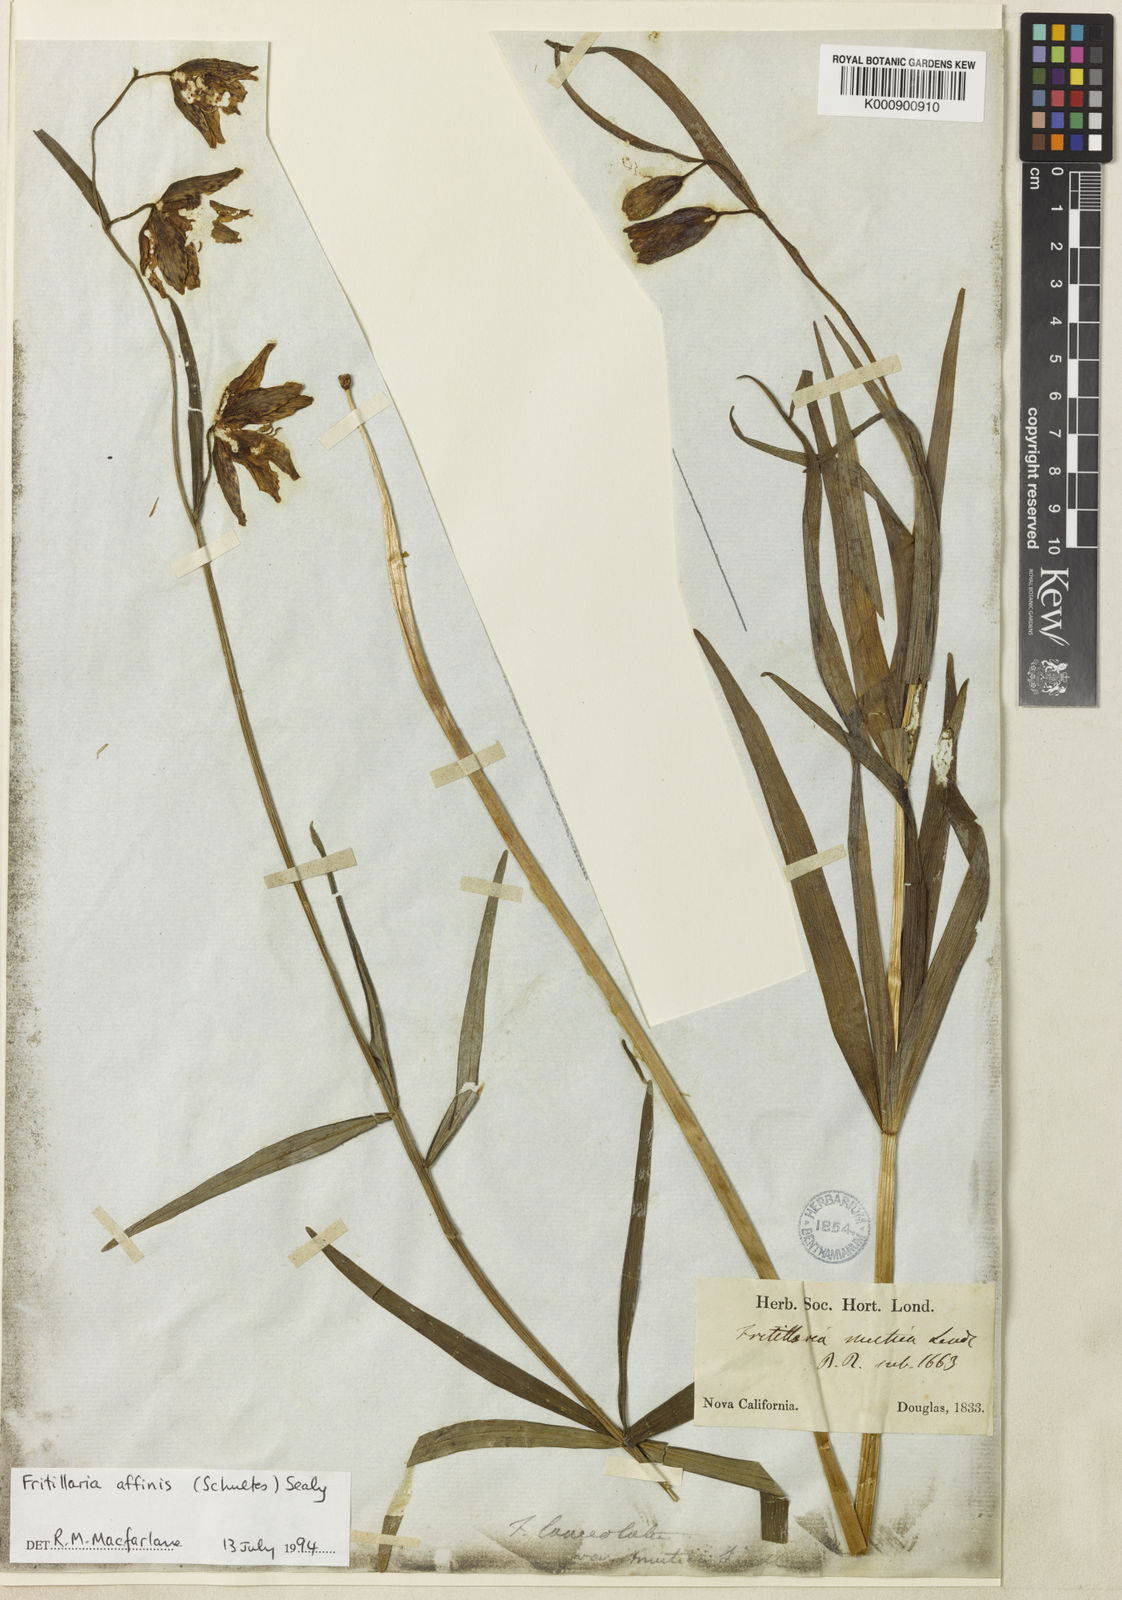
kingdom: Plantae
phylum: Tracheophyta
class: Liliopsida
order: Liliales
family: Liliaceae
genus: Fritillaria
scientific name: Fritillaria affinis
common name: Ojai fritillary
